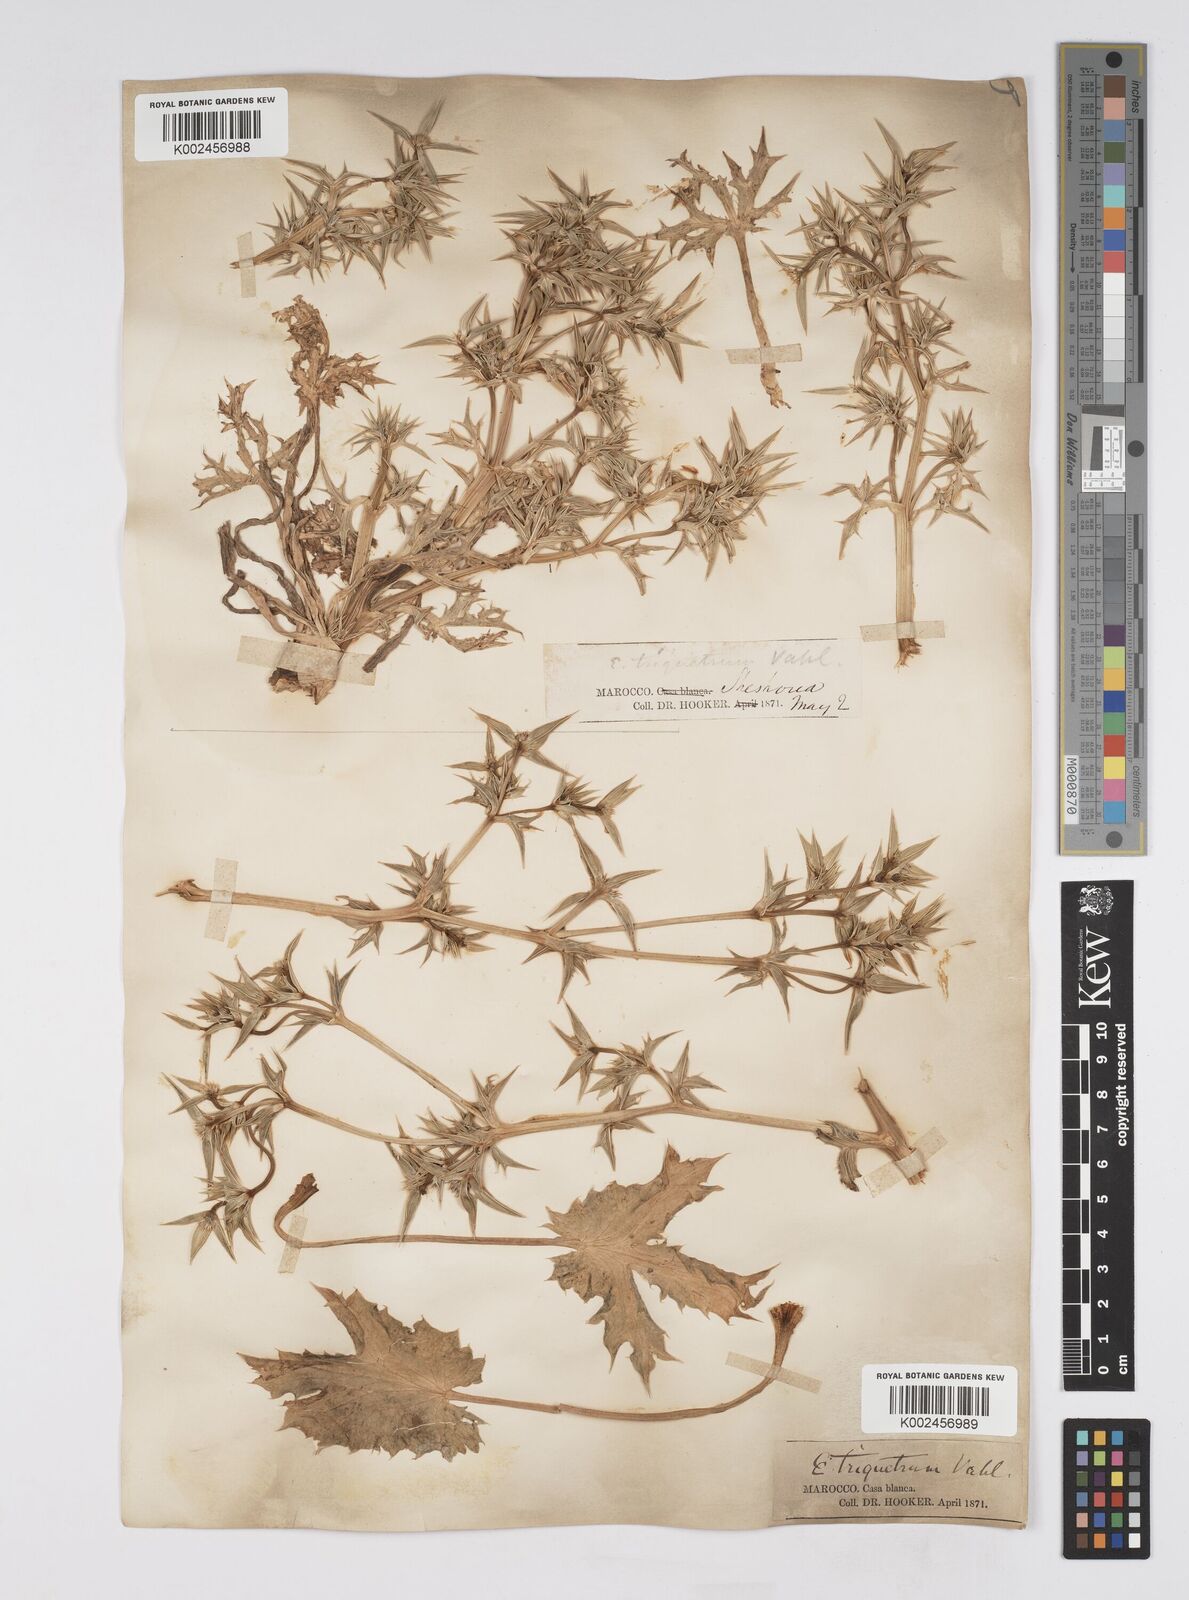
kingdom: Plantae
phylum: Tracheophyta
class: Magnoliopsida
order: Apiales
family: Apiaceae
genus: Eryngium
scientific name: Eryngium
